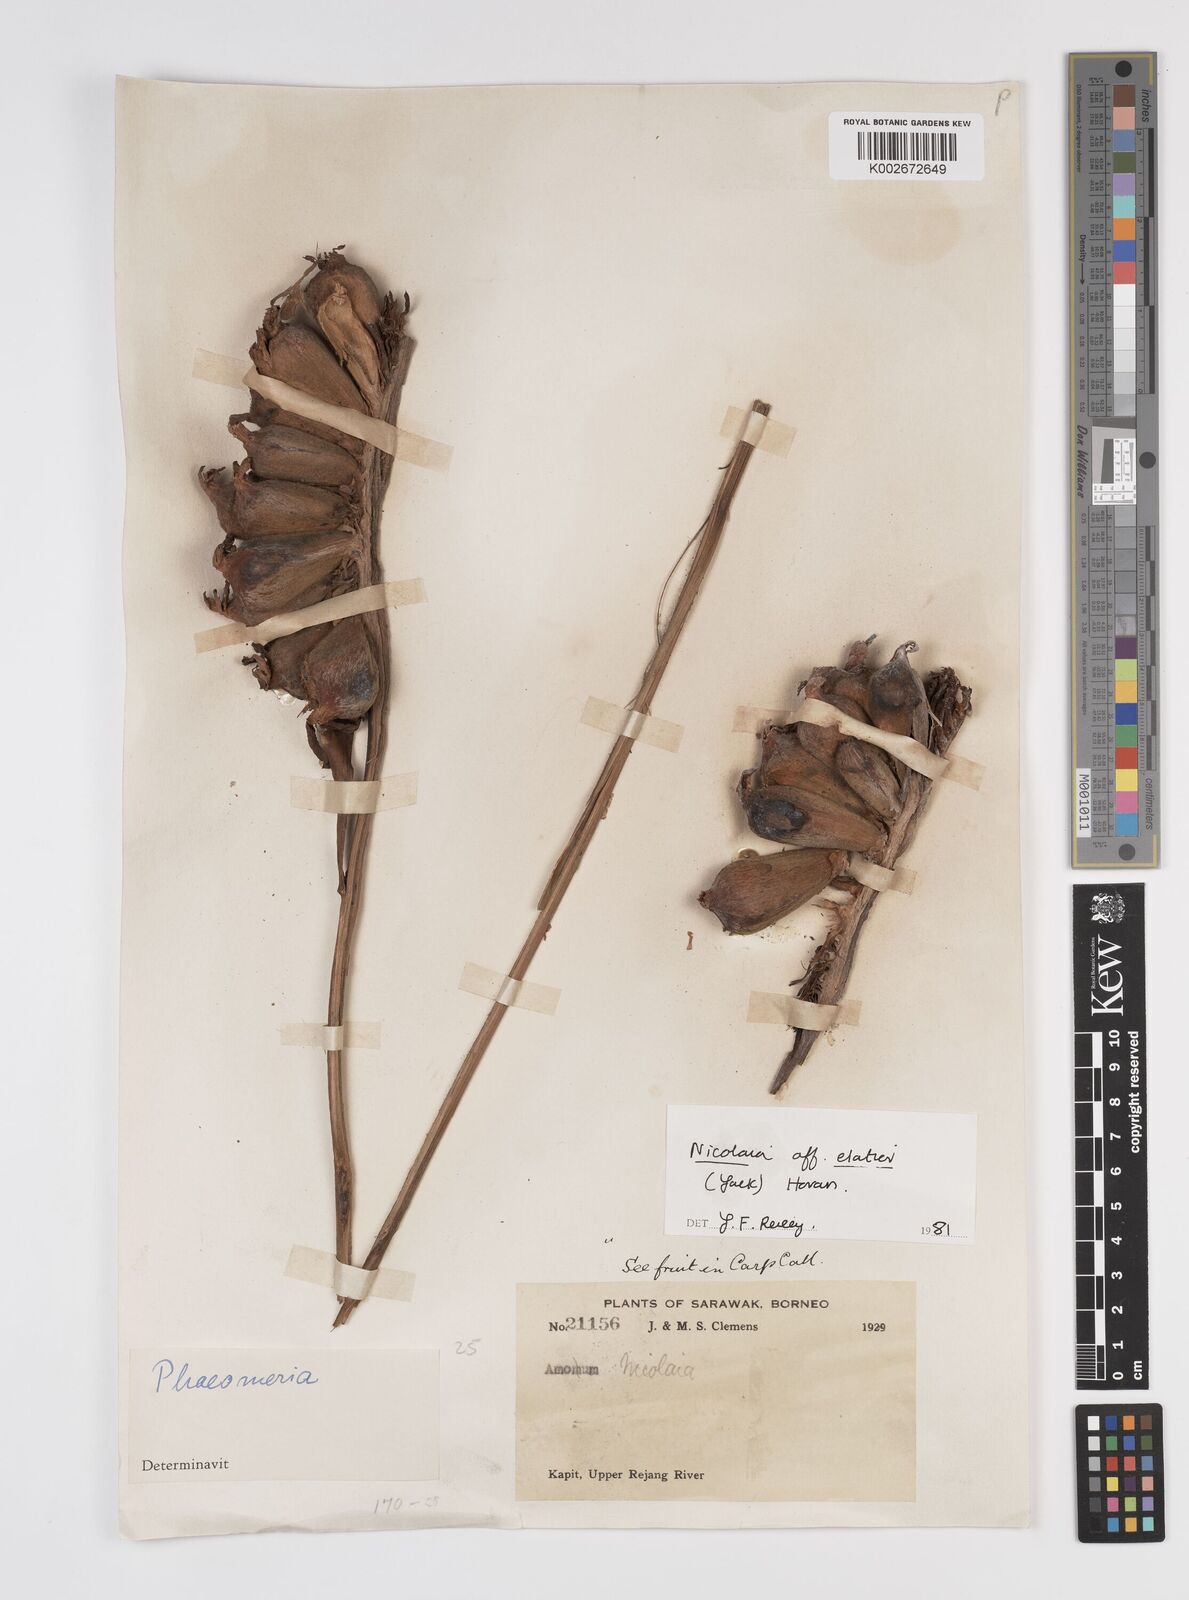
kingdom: Plantae
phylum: Tracheophyta
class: Liliopsida
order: Zingiberales
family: Zingiberaceae
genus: Etlingera
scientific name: Etlingera elatior
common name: Philippine waxflower
